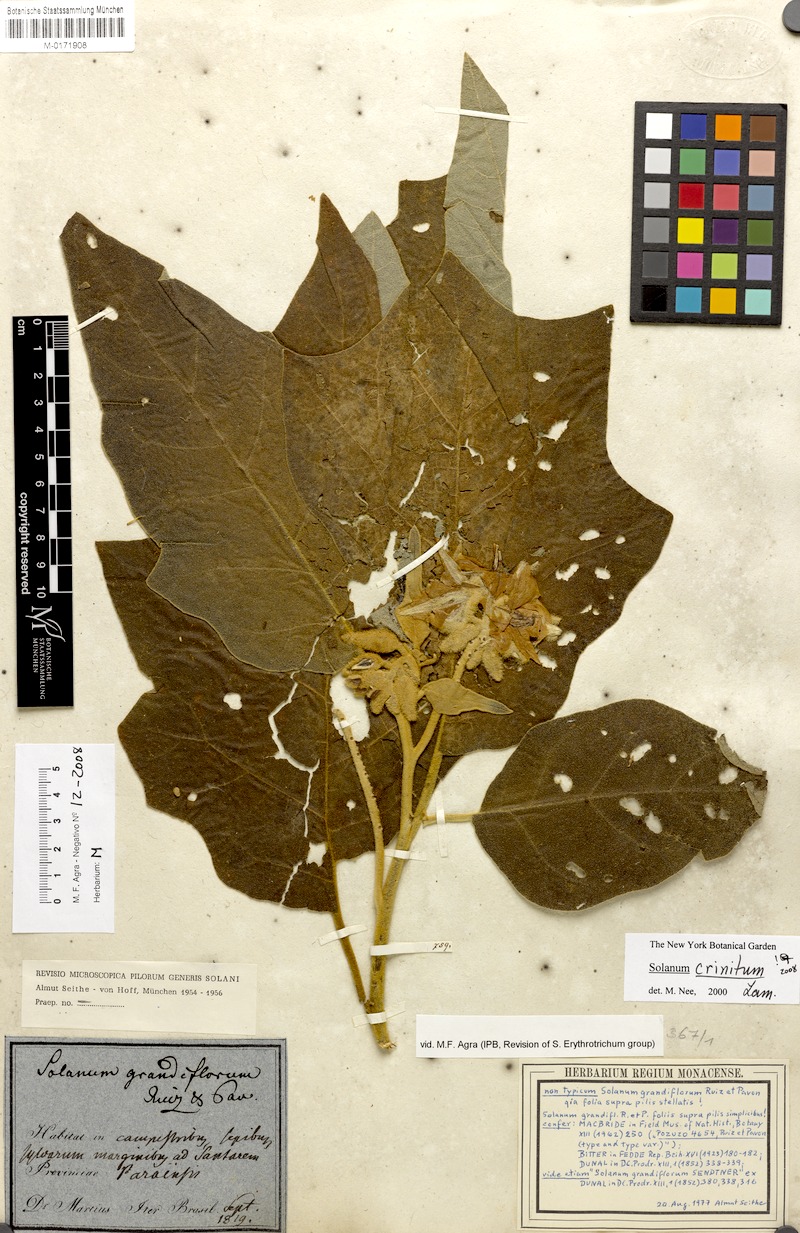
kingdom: Plantae
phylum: Tracheophyta
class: Magnoliopsida
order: Solanales
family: Solanaceae
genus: Solanum
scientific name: Solanum crinitum
